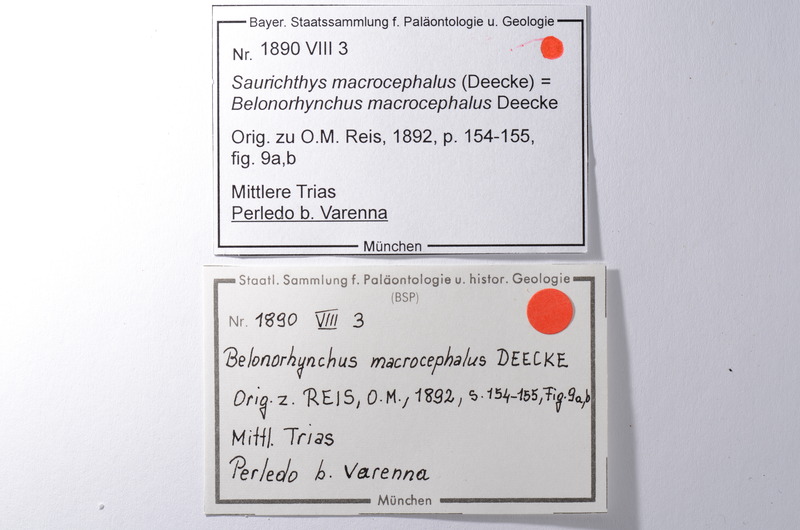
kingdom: Animalia
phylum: Chordata
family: Saurichthyidae
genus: Saurichthys
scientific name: Saurichthys Belonorhynchus macrocephalus
